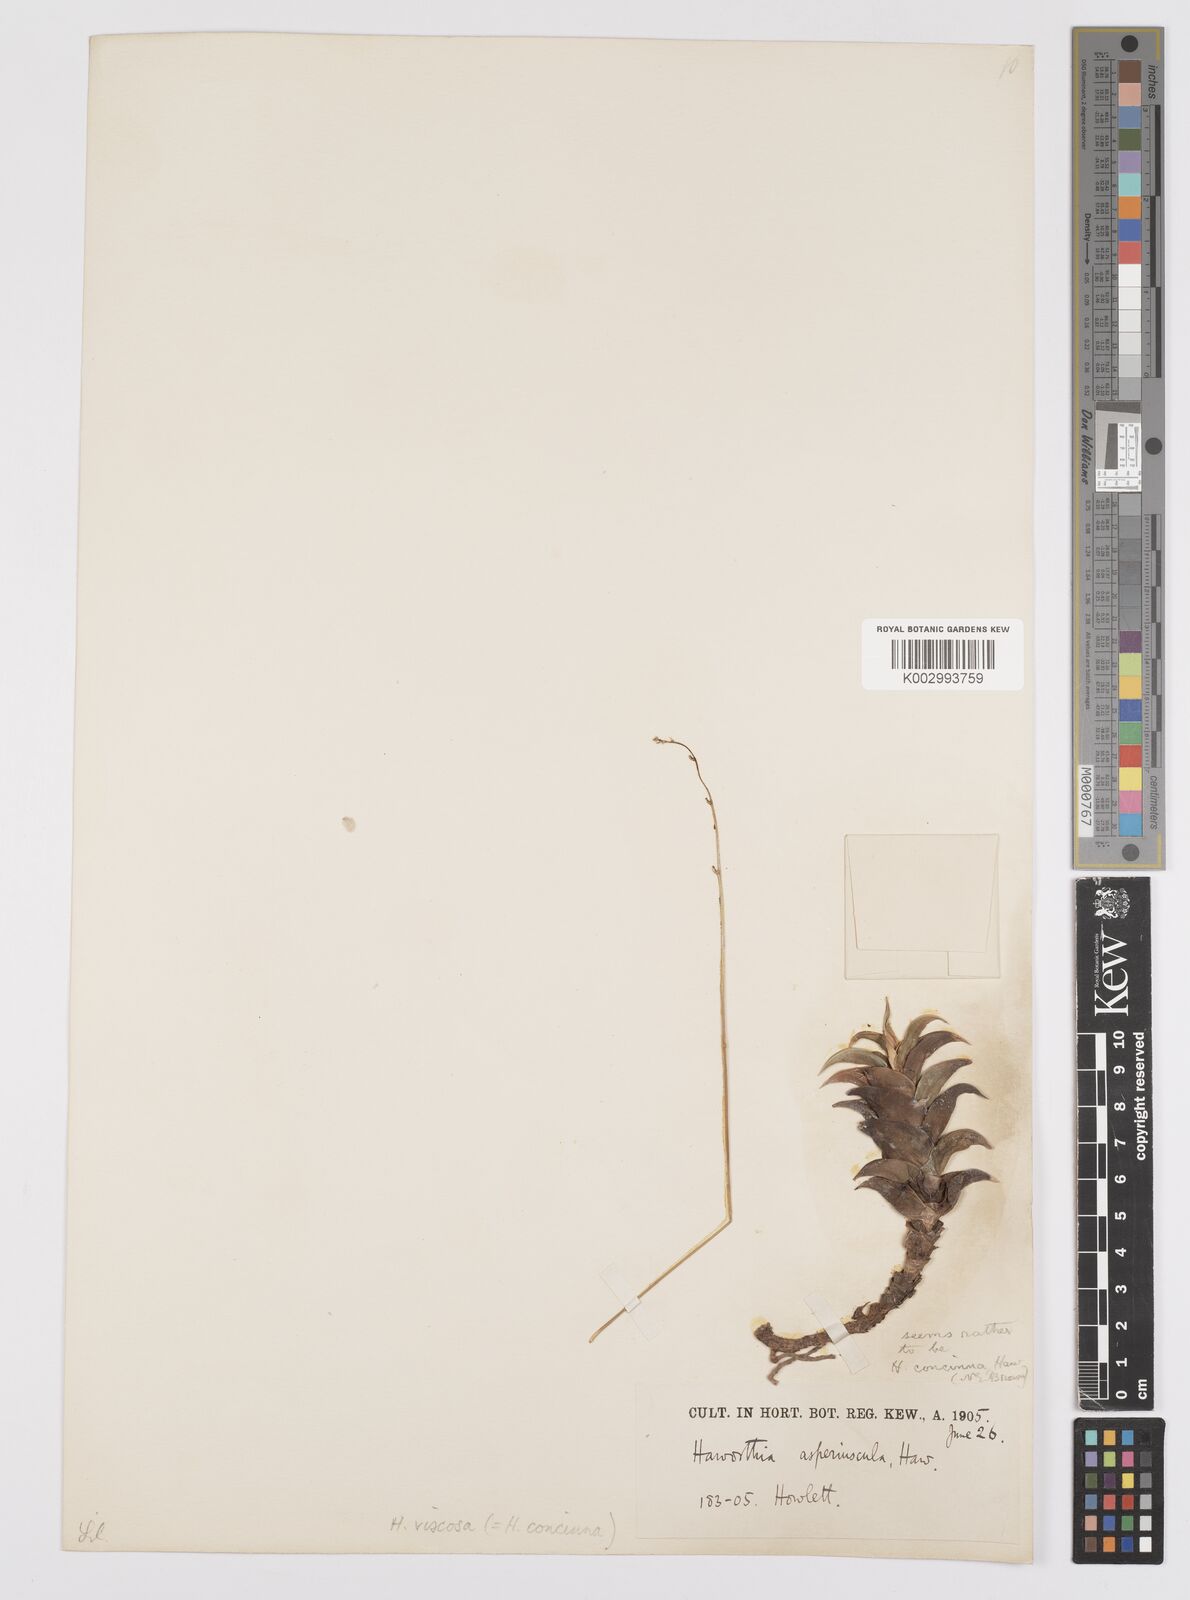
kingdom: Plantae
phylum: Tracheophyta
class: Liliopsida
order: Asparagales
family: Asphodelaceae
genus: Haworthiopsis
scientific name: Haworthiopsis viscosa
